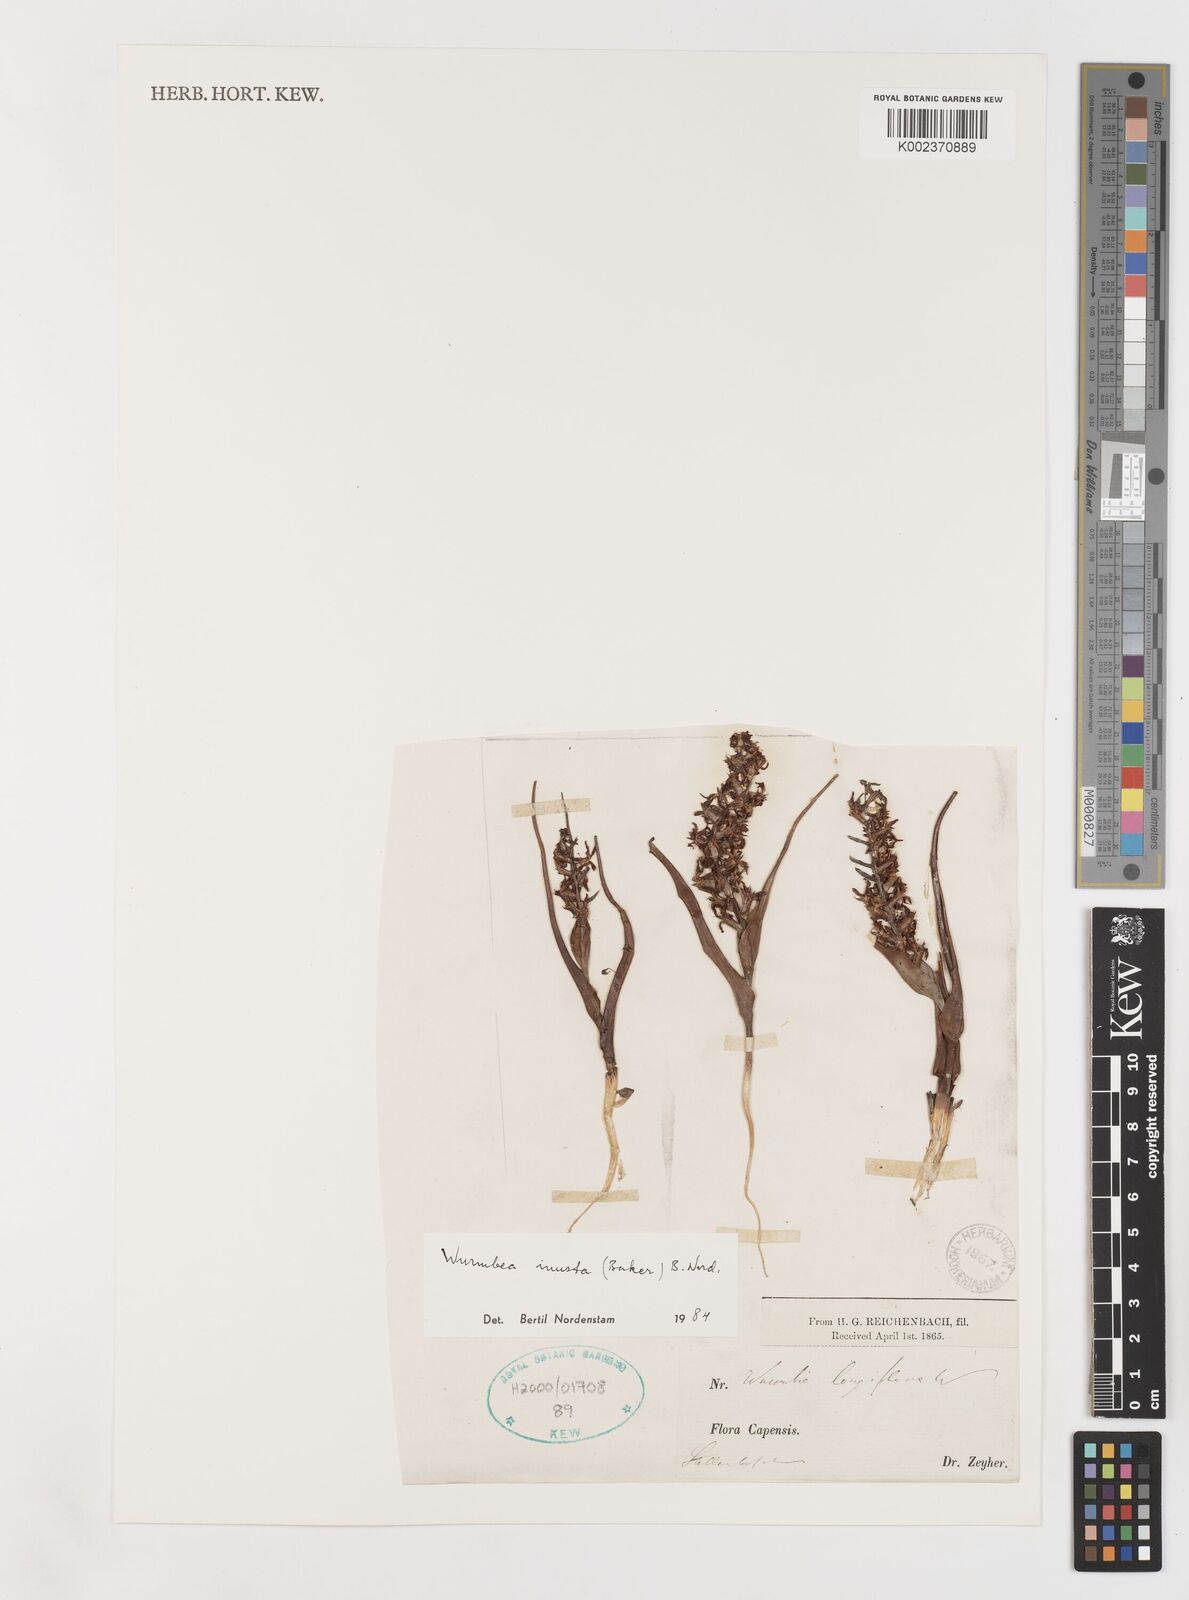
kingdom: Plantae
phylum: Tracheophyta
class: Liliopsida
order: Liliales
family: Colchicaceae
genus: Wurmbea
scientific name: Wurmbea inusta
